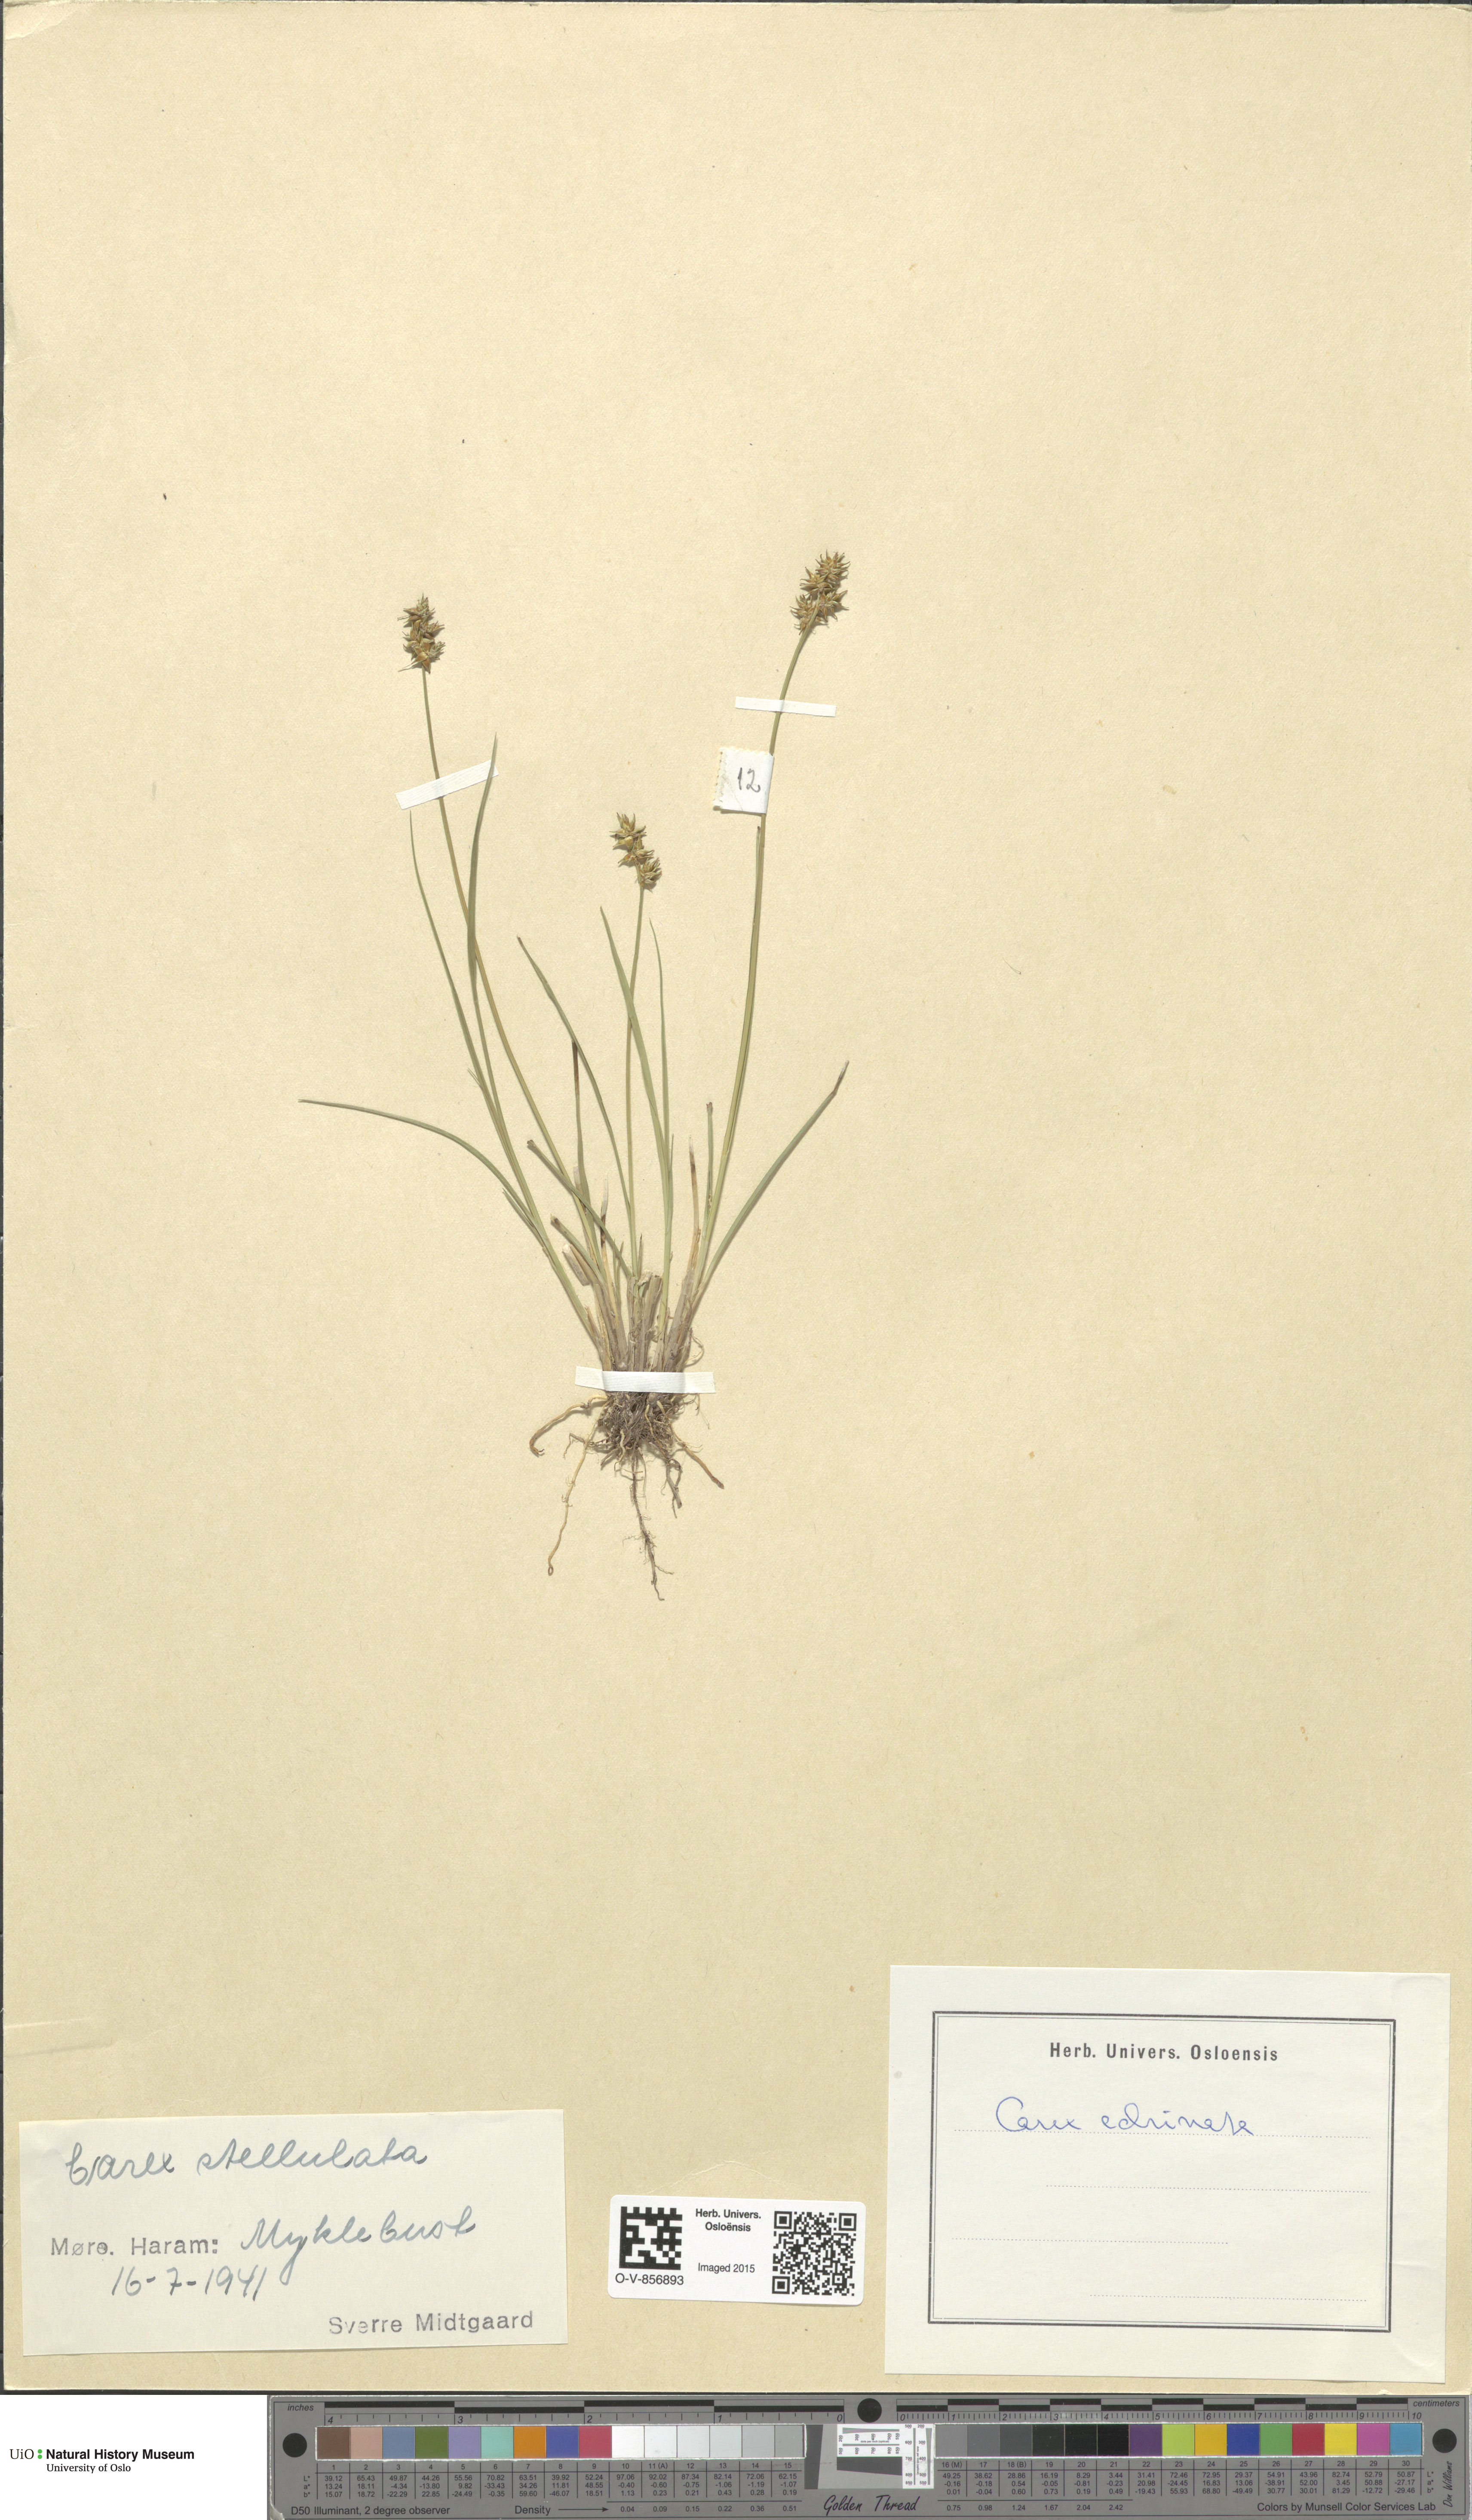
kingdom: Plantae
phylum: Tracheophyta
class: Liliopsida
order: Poales
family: Cyperaceae
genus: Carex
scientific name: Carex echinata
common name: Star sedge
